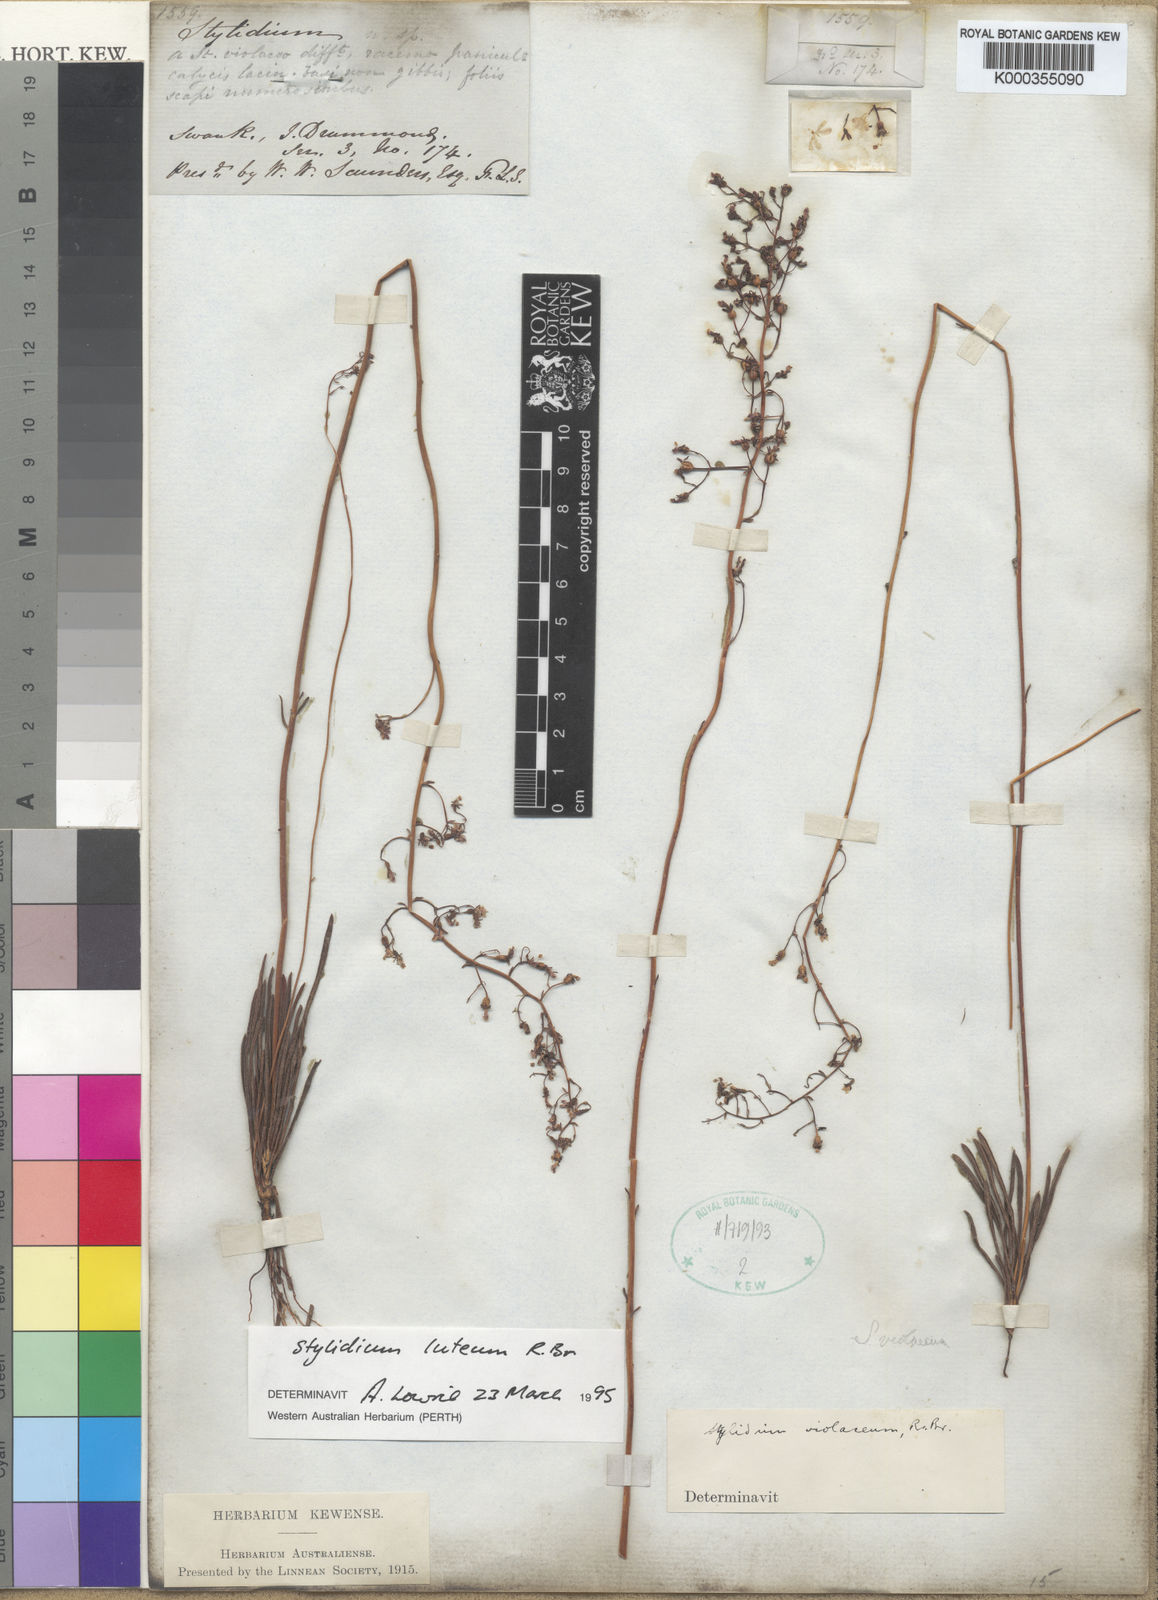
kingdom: Plantae
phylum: Tracheophyta
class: Magnoliopsida
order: Asterales
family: Stylidiaceae
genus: Stylidium
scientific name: Stylidium luteum
